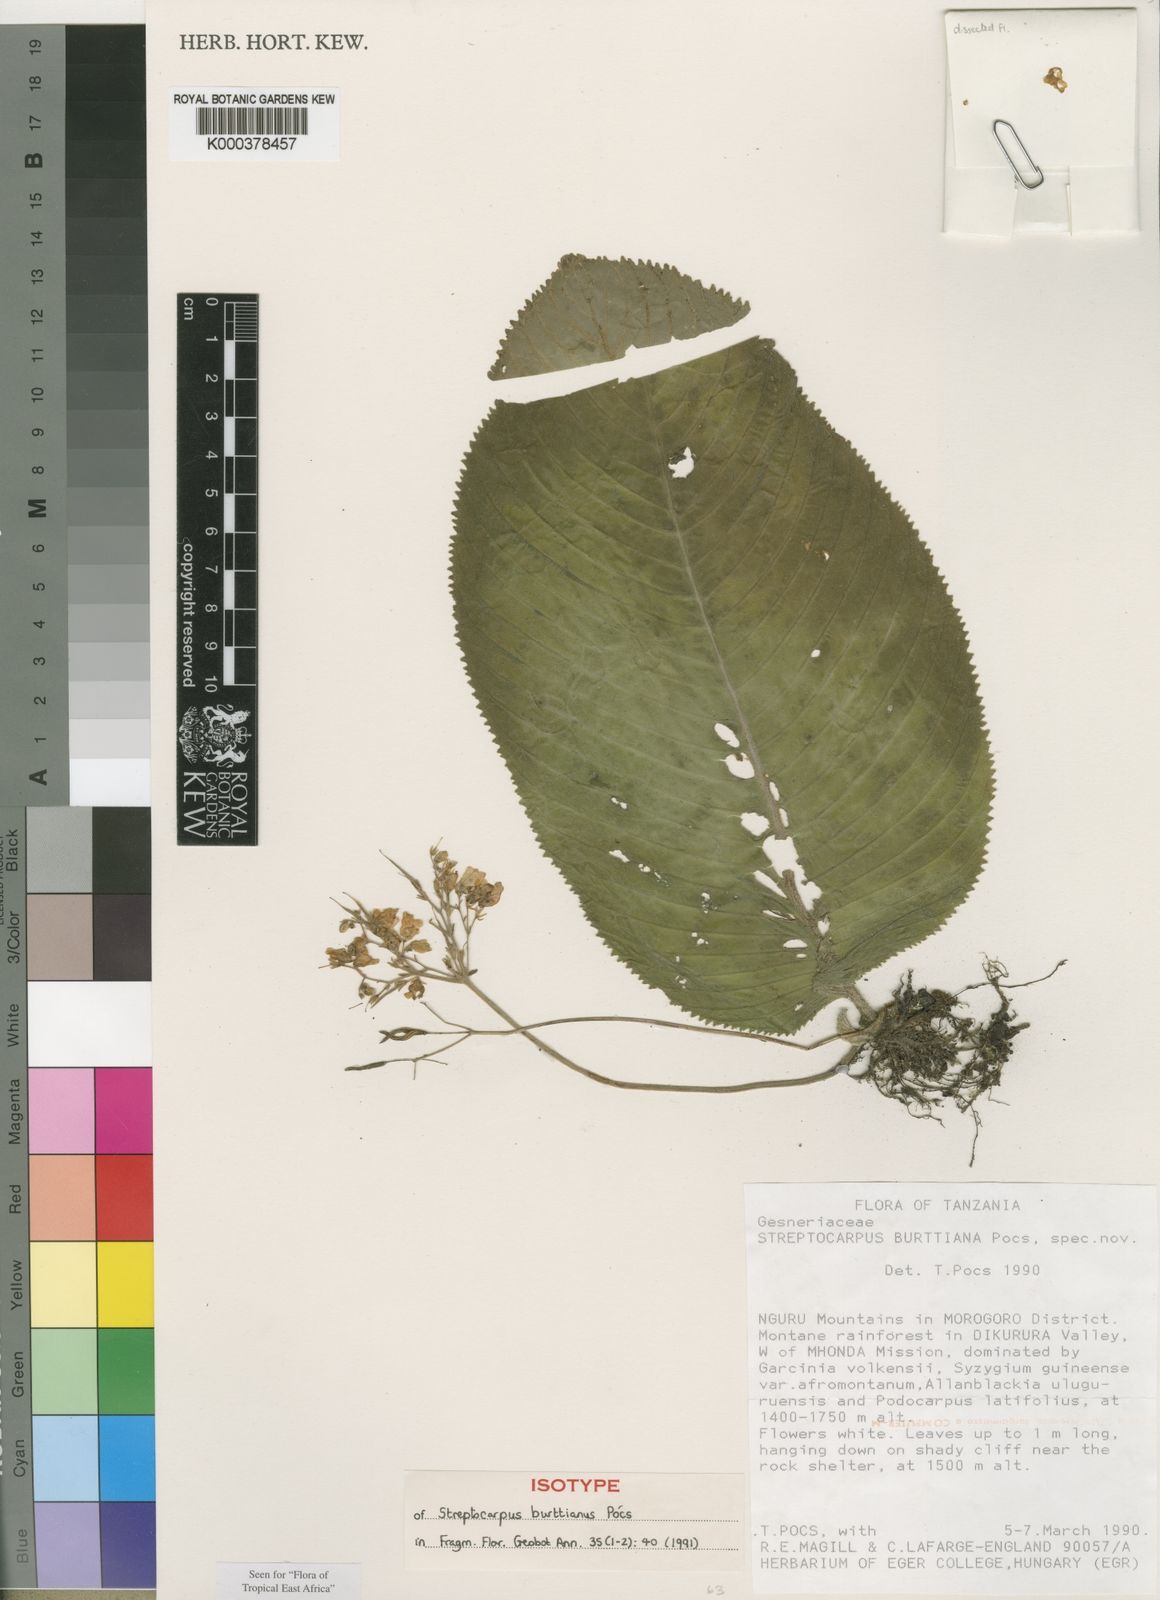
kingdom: Plantae
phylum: Tracheophyta
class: Magnoliopsida
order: Lamiales
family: Gesneriaceae
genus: Streptocarpus
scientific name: Streptocarpus
